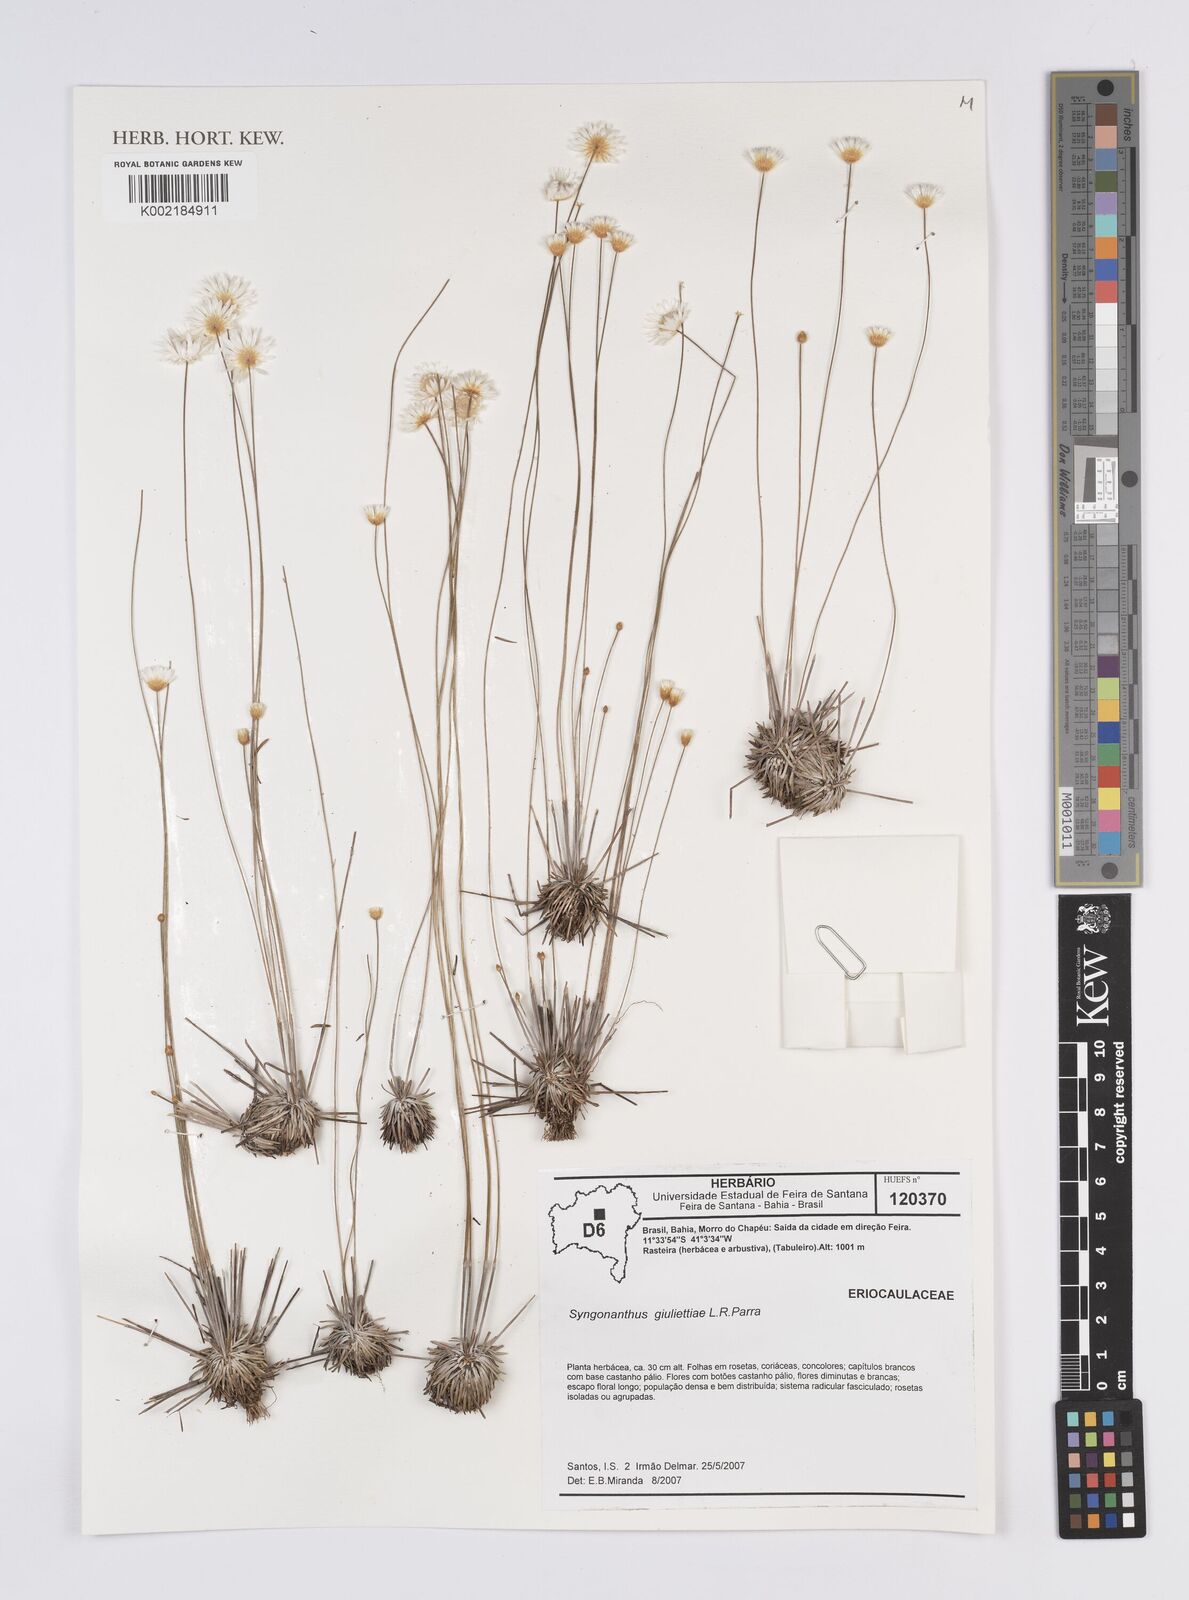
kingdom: Plantae
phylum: Tracheophyta
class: Liliopsida
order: Poales
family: Eriocaulaceae
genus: Comanthera
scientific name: Comanthera giuliettiae
